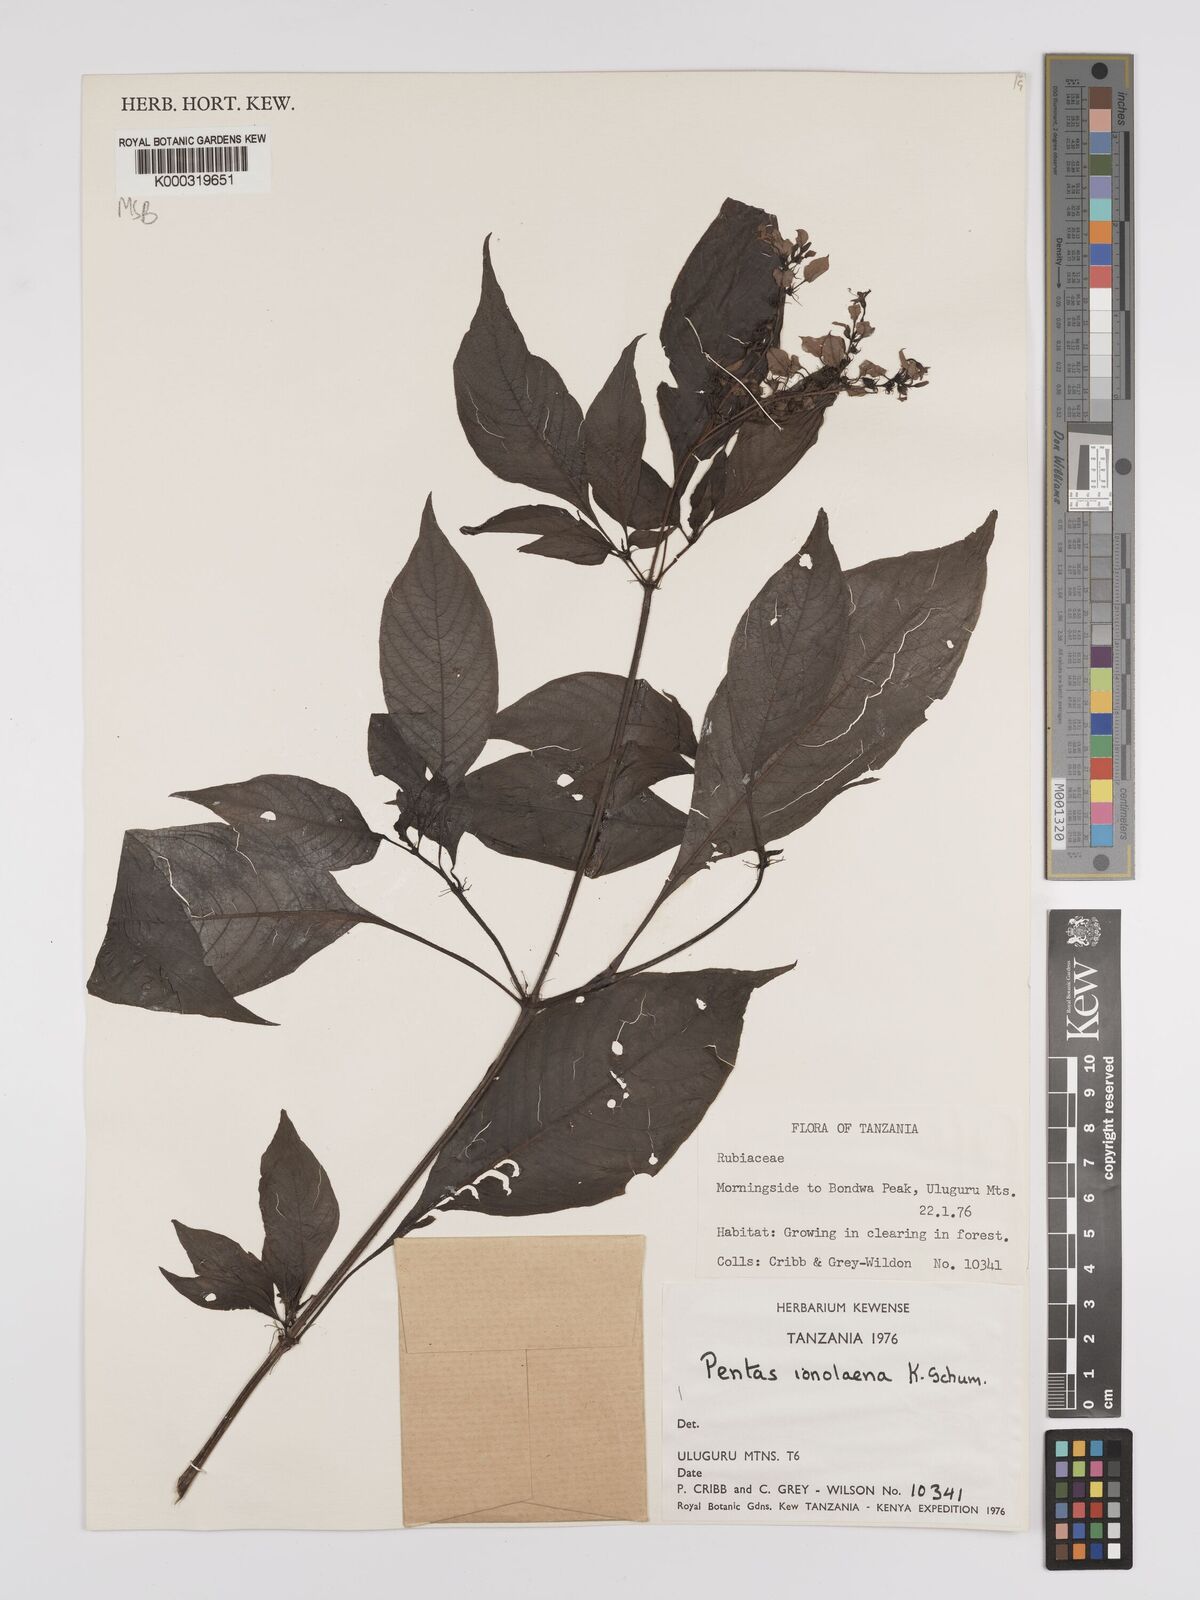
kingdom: Plantae
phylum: Tracheophyta
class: Magnoliopsida
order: Gentianales
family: Rubiaceae
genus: Phyllopentas
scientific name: Phyllopentas ionolaena
